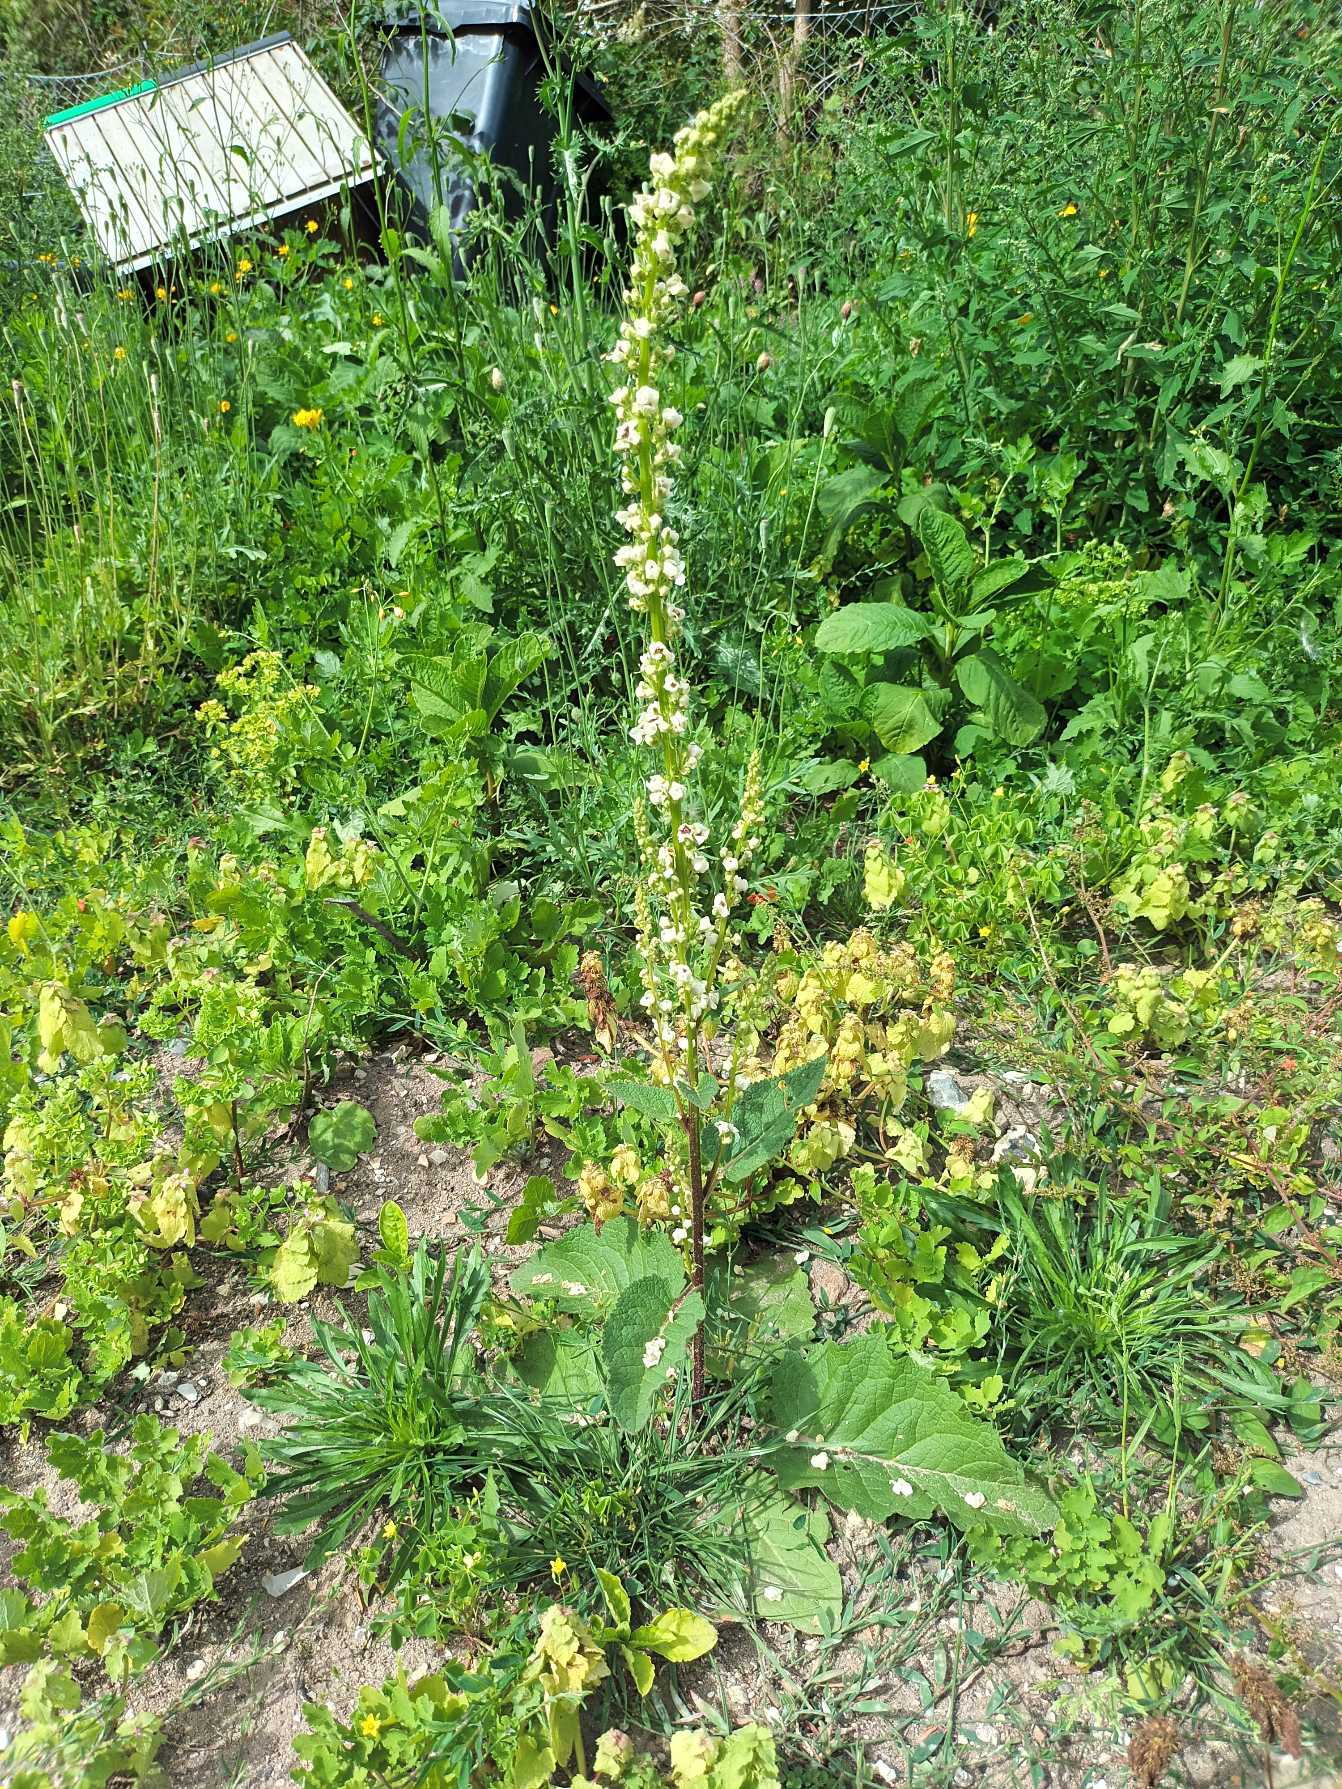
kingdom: Plantae
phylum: Tracheophyta
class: Magnoliopsida
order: Lamiales
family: Scrophulariaceae
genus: Verbascum
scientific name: Verbascum nigrum
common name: Mørk kongelys
